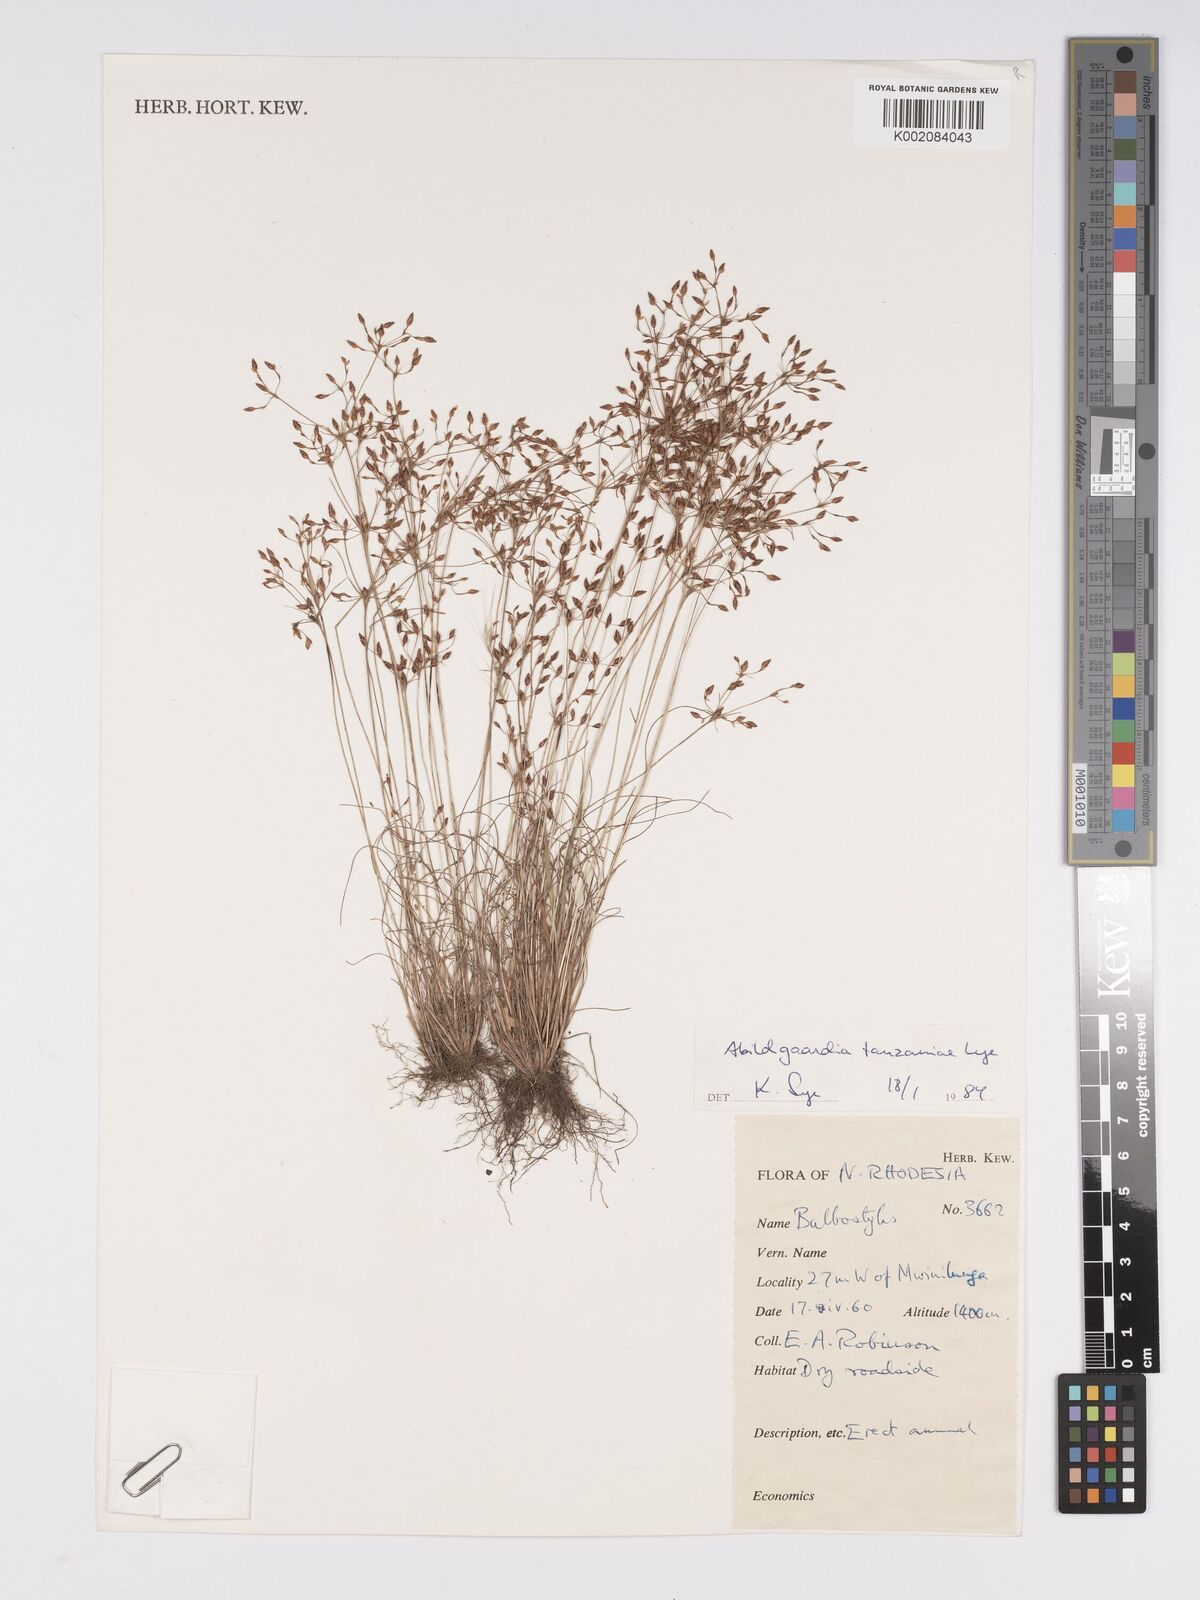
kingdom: Plantae
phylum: Tracheophyta
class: Liliopsida
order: Poales
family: Cyperaceae
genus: Bulbostylis
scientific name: Bulbostylis tanzaniae
